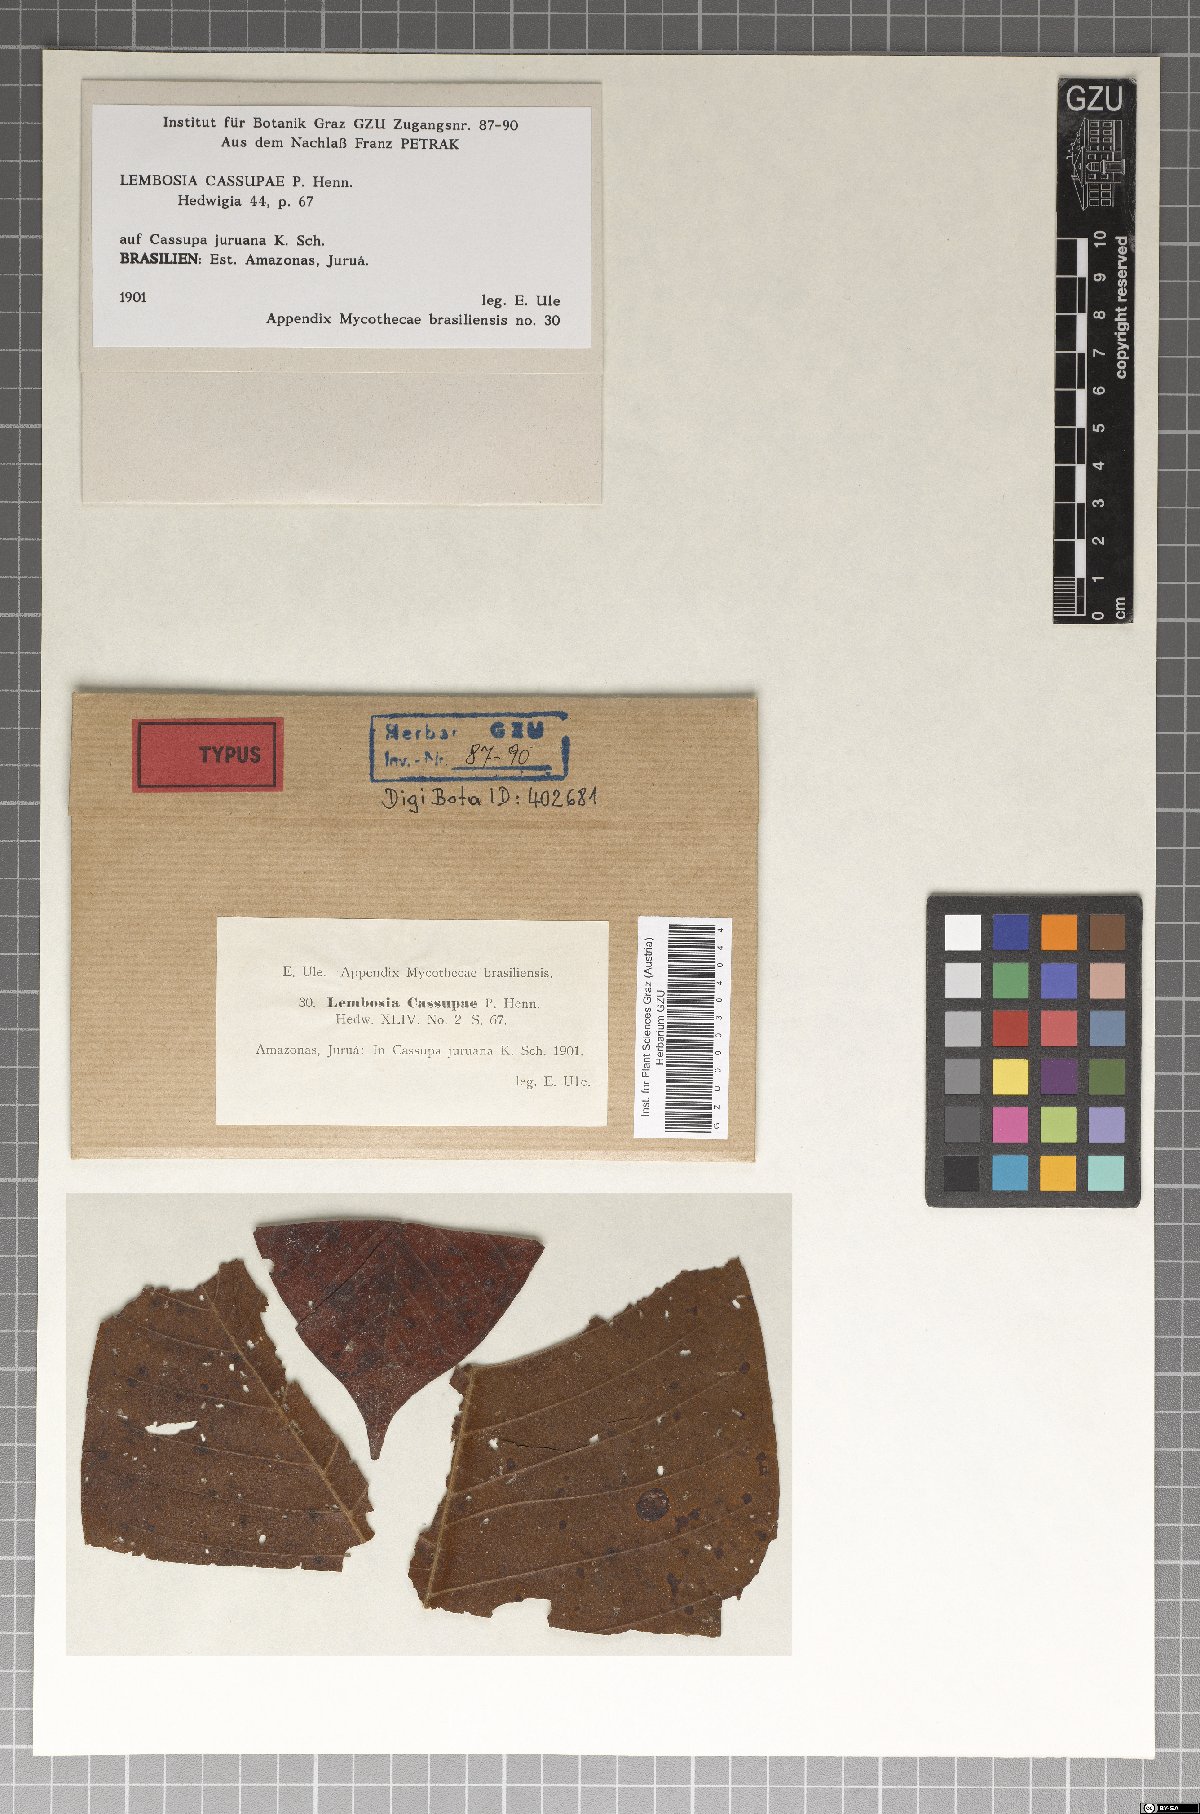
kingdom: Fungi
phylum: Ascomycota
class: Dothideomycetes
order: Asterinales
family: Asterinaceae
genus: Lembosia
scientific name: Lembosia cassupae
